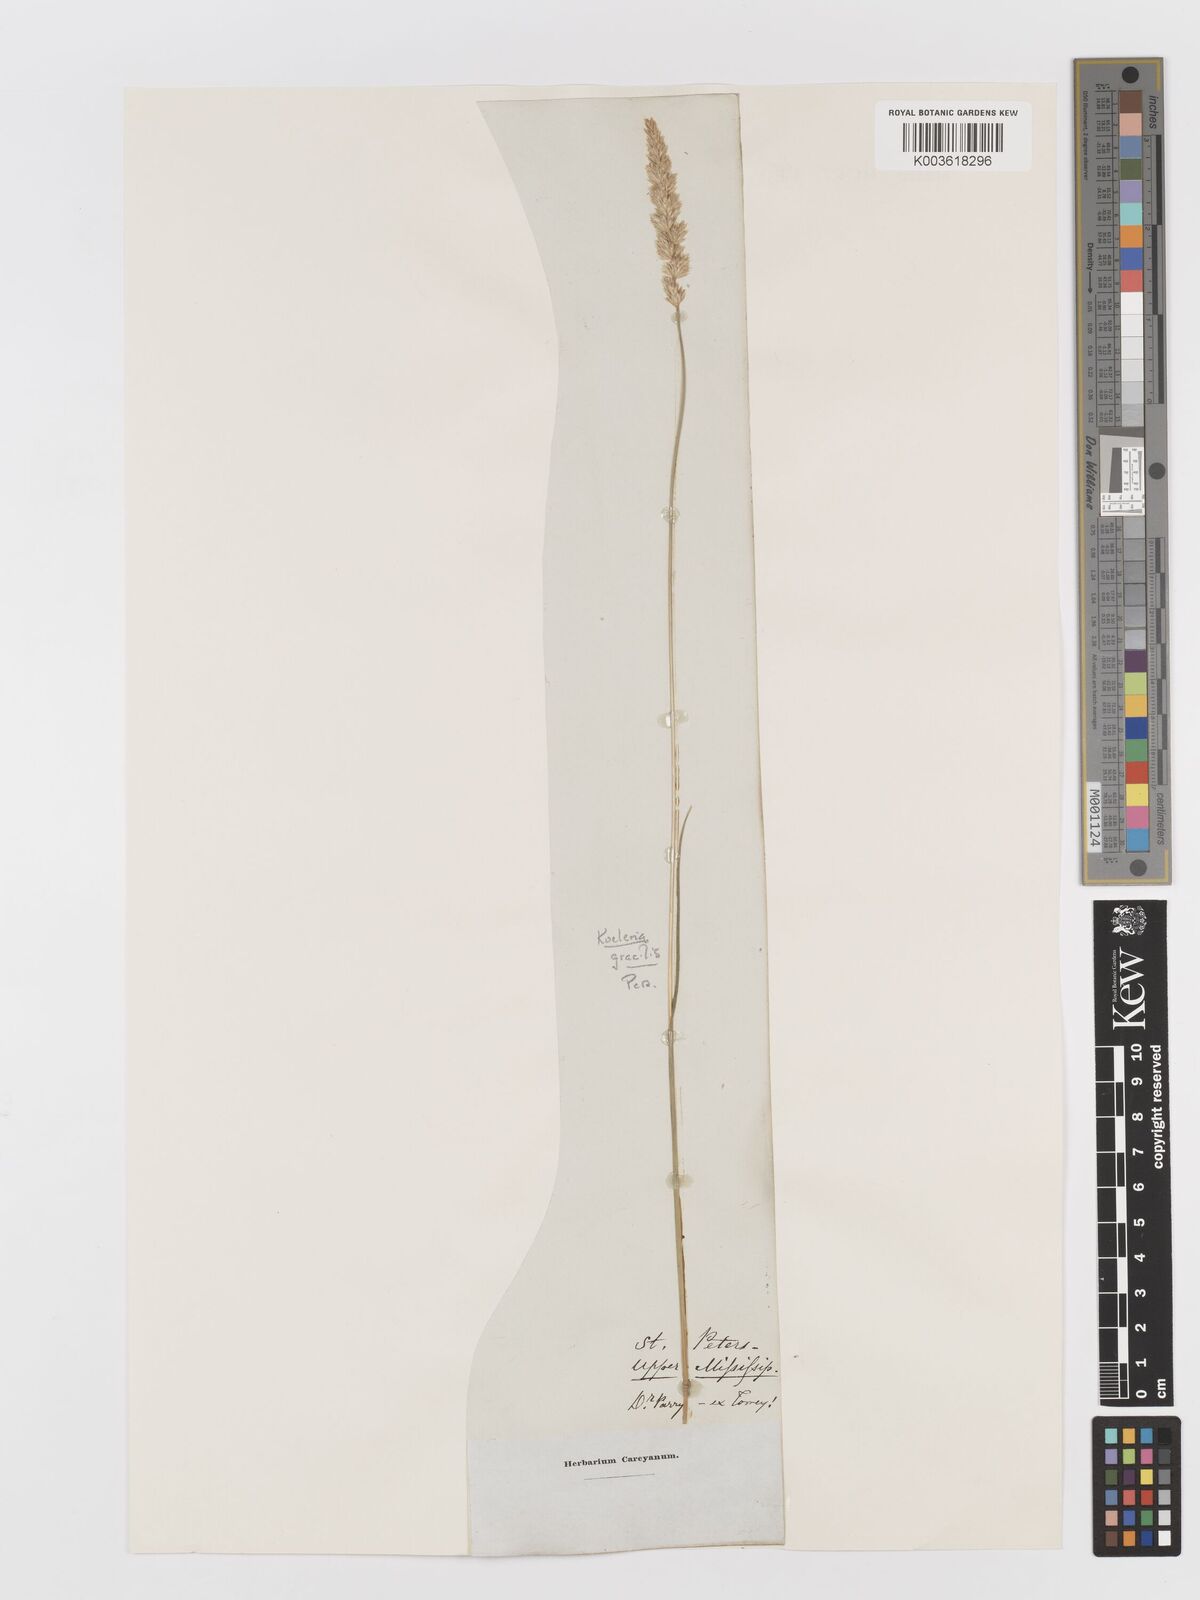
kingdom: Plantae
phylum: Tracheophyta
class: Liliopsida
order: Poales
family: Poaceae
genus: Koeleria
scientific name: Koeleria macrantha
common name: Crested hair-grass
